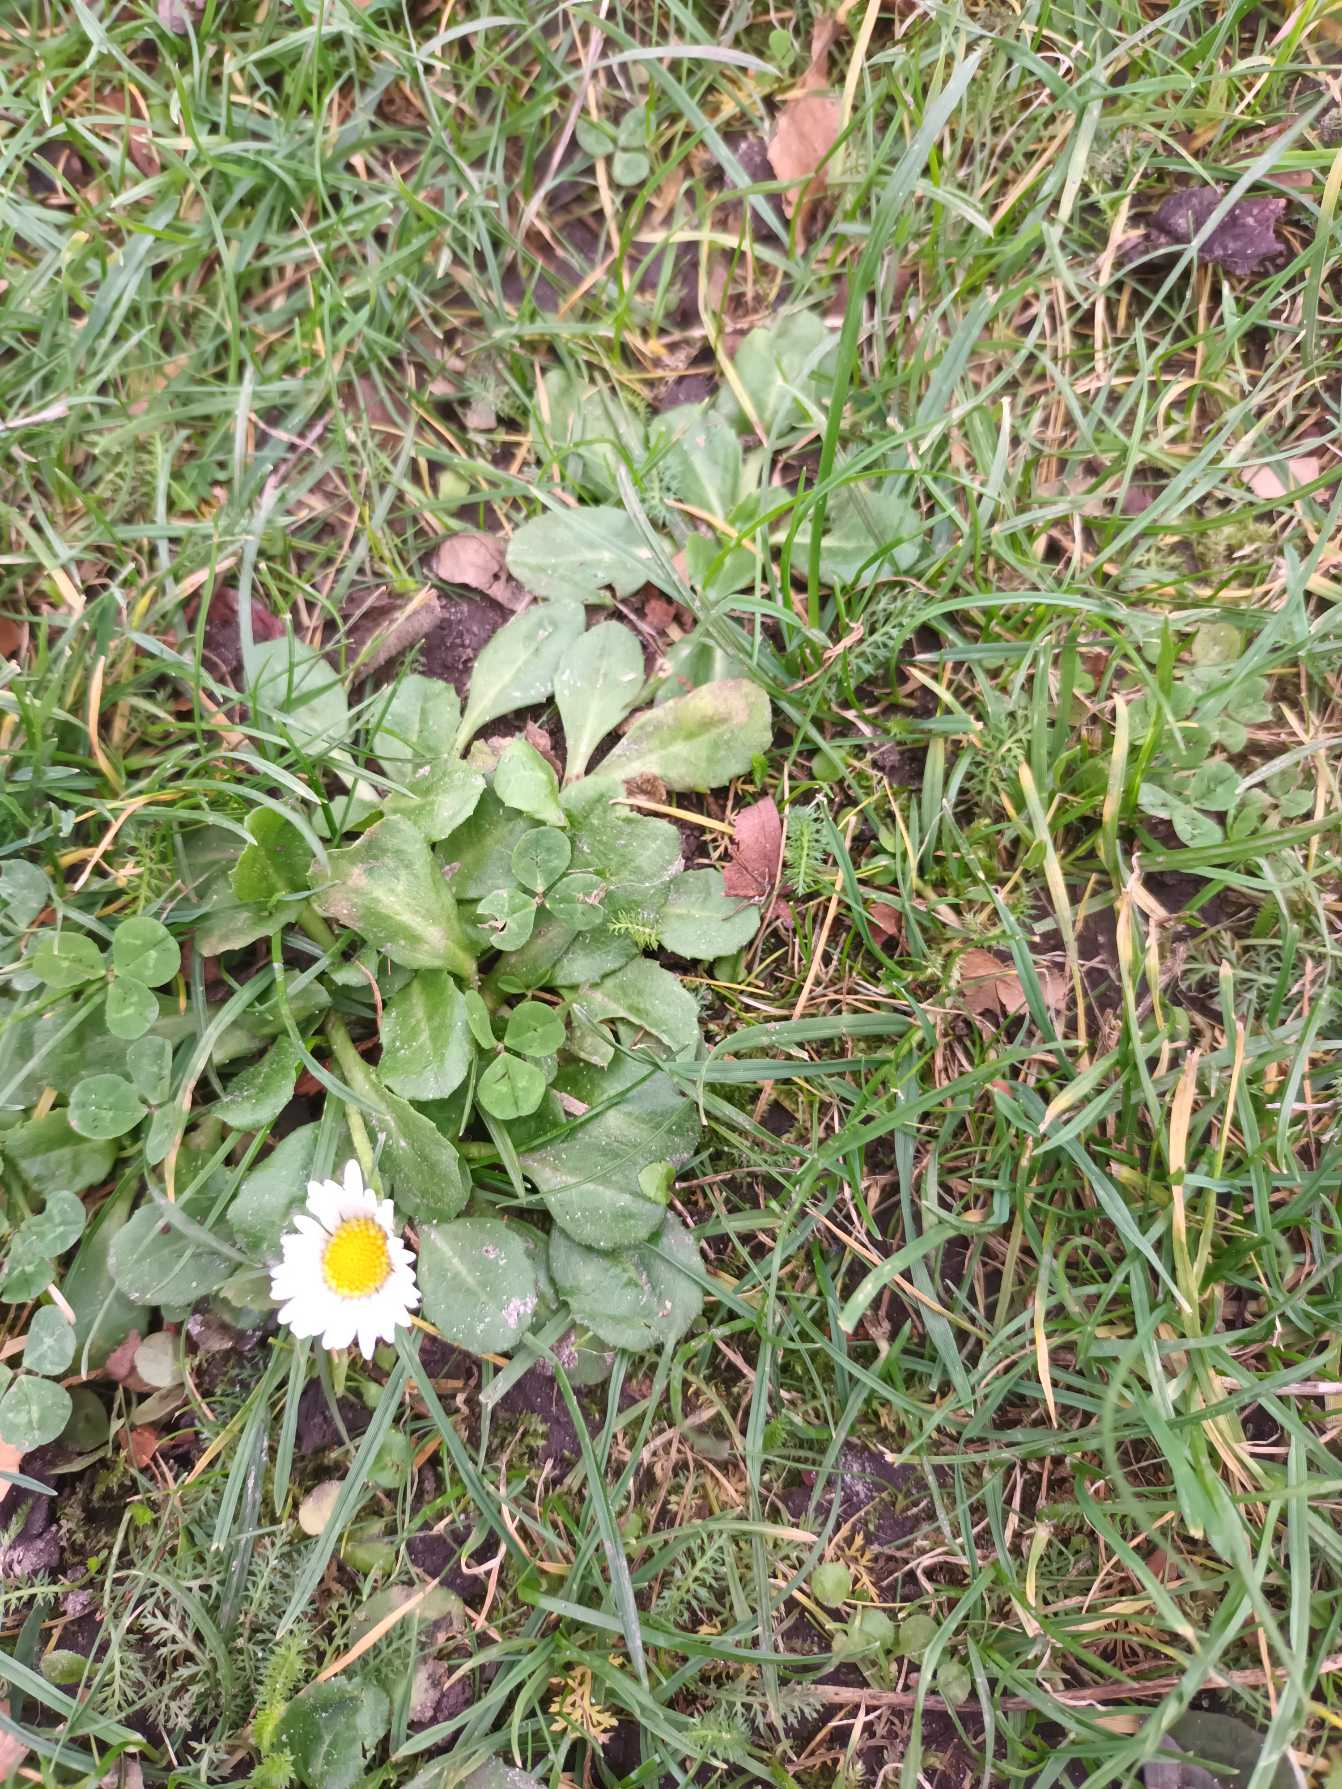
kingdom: Plantae
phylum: Tracheophyta
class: Magnoliopsida
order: Asterales
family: Asteraceae
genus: Bellis
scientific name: Bellis perennis
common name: Tusindfryd
